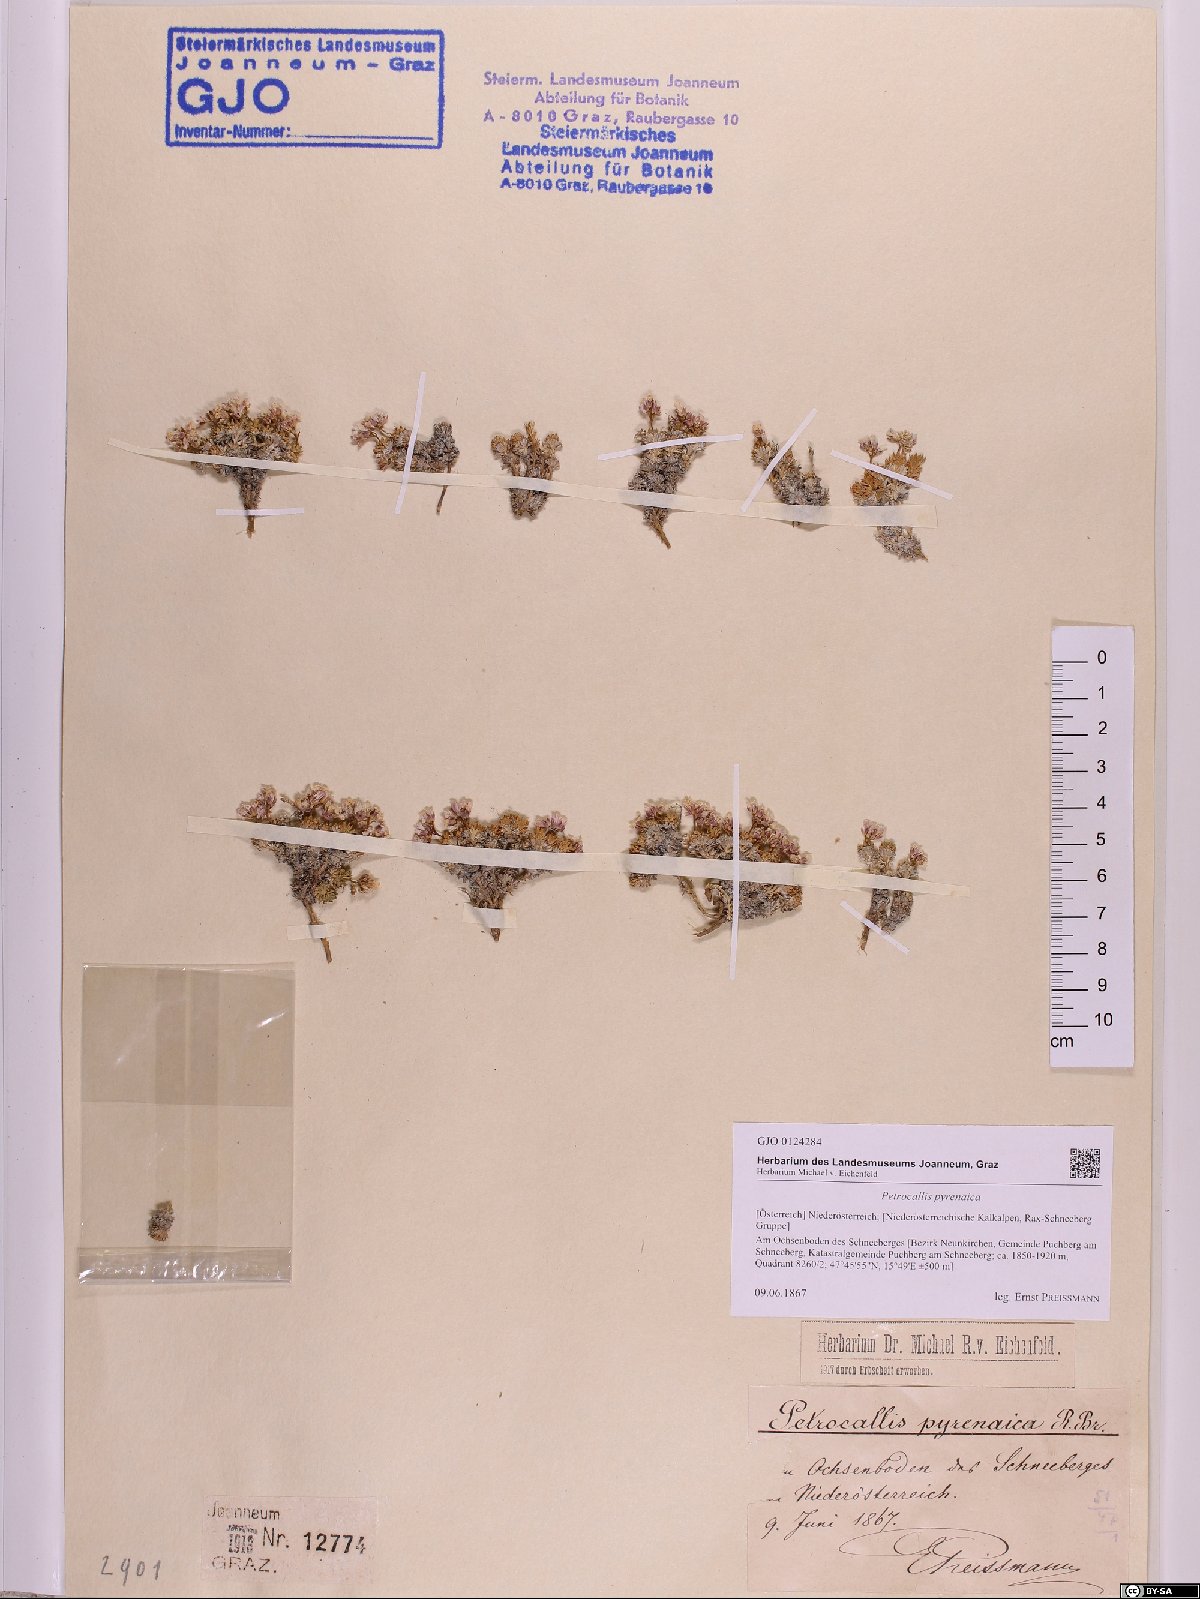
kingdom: Plantae
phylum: Tracheophyta
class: Magnoliopsida
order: Brassicales
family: Brassicaceae
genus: Petrocallis
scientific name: Petrocallis pyrenaica
